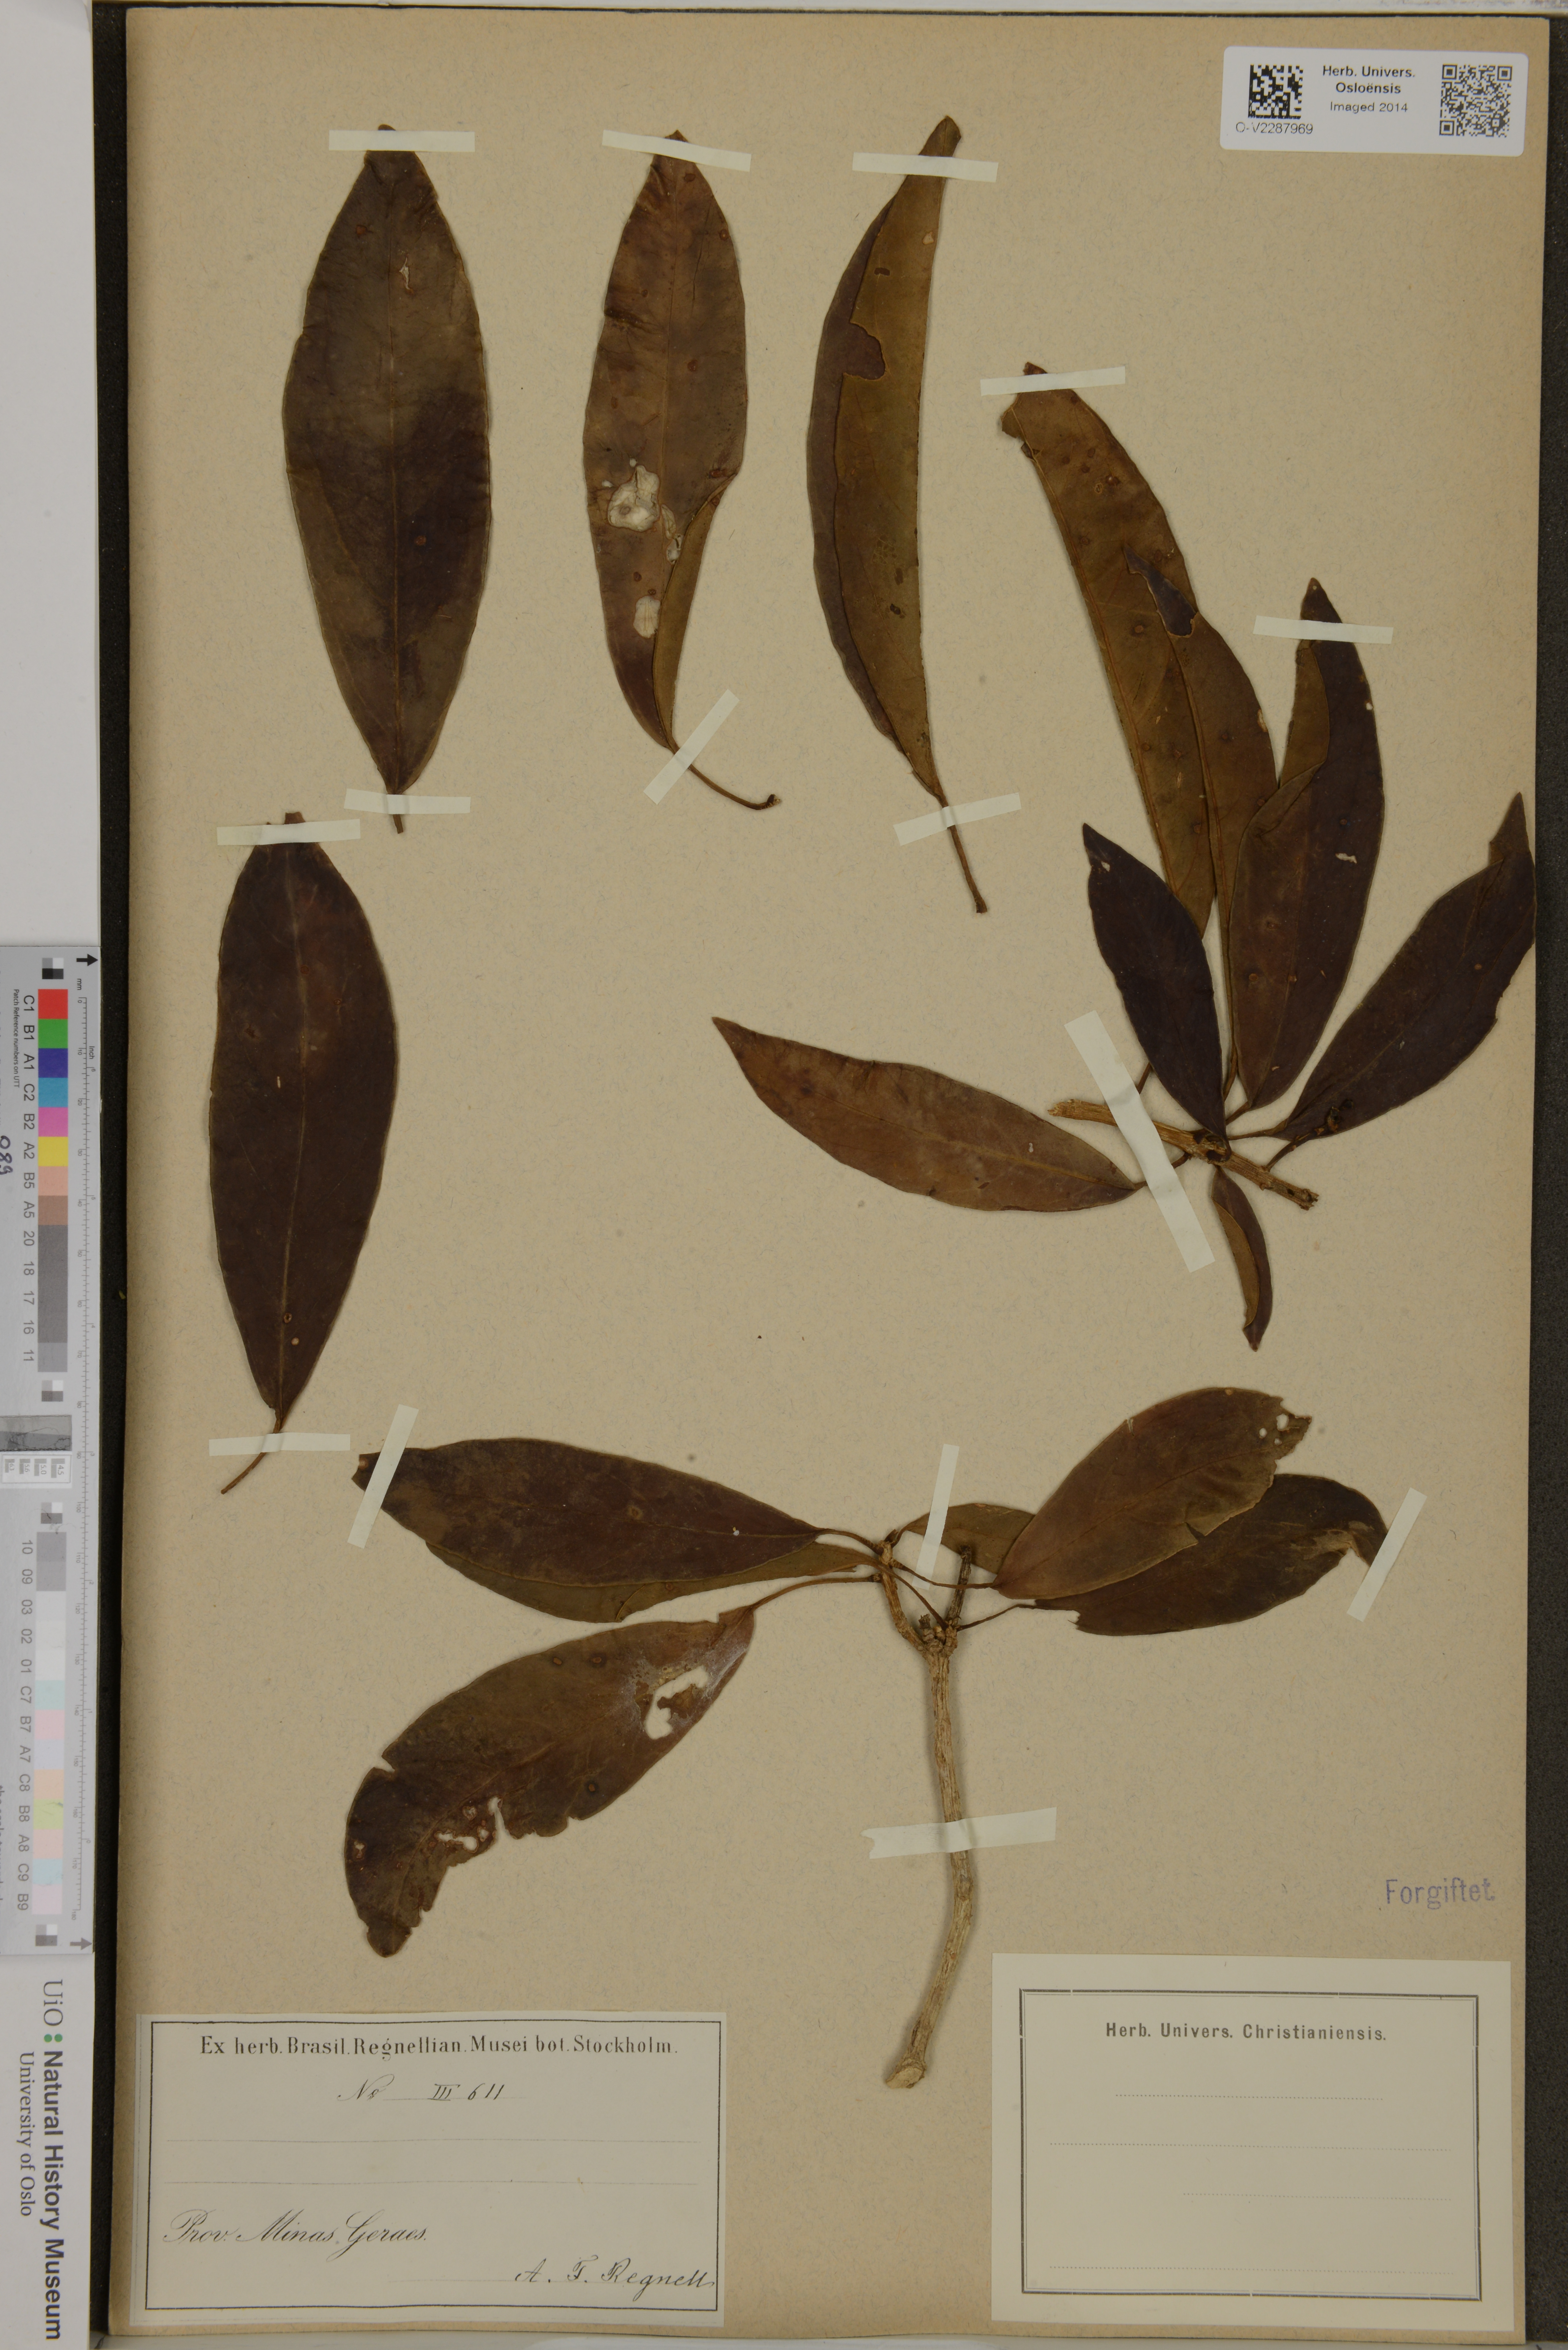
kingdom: Plantae
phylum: Tracheophyta
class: Magnoliopsida
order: Apiales
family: Araliaceae
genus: Aralia
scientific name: Aralia
